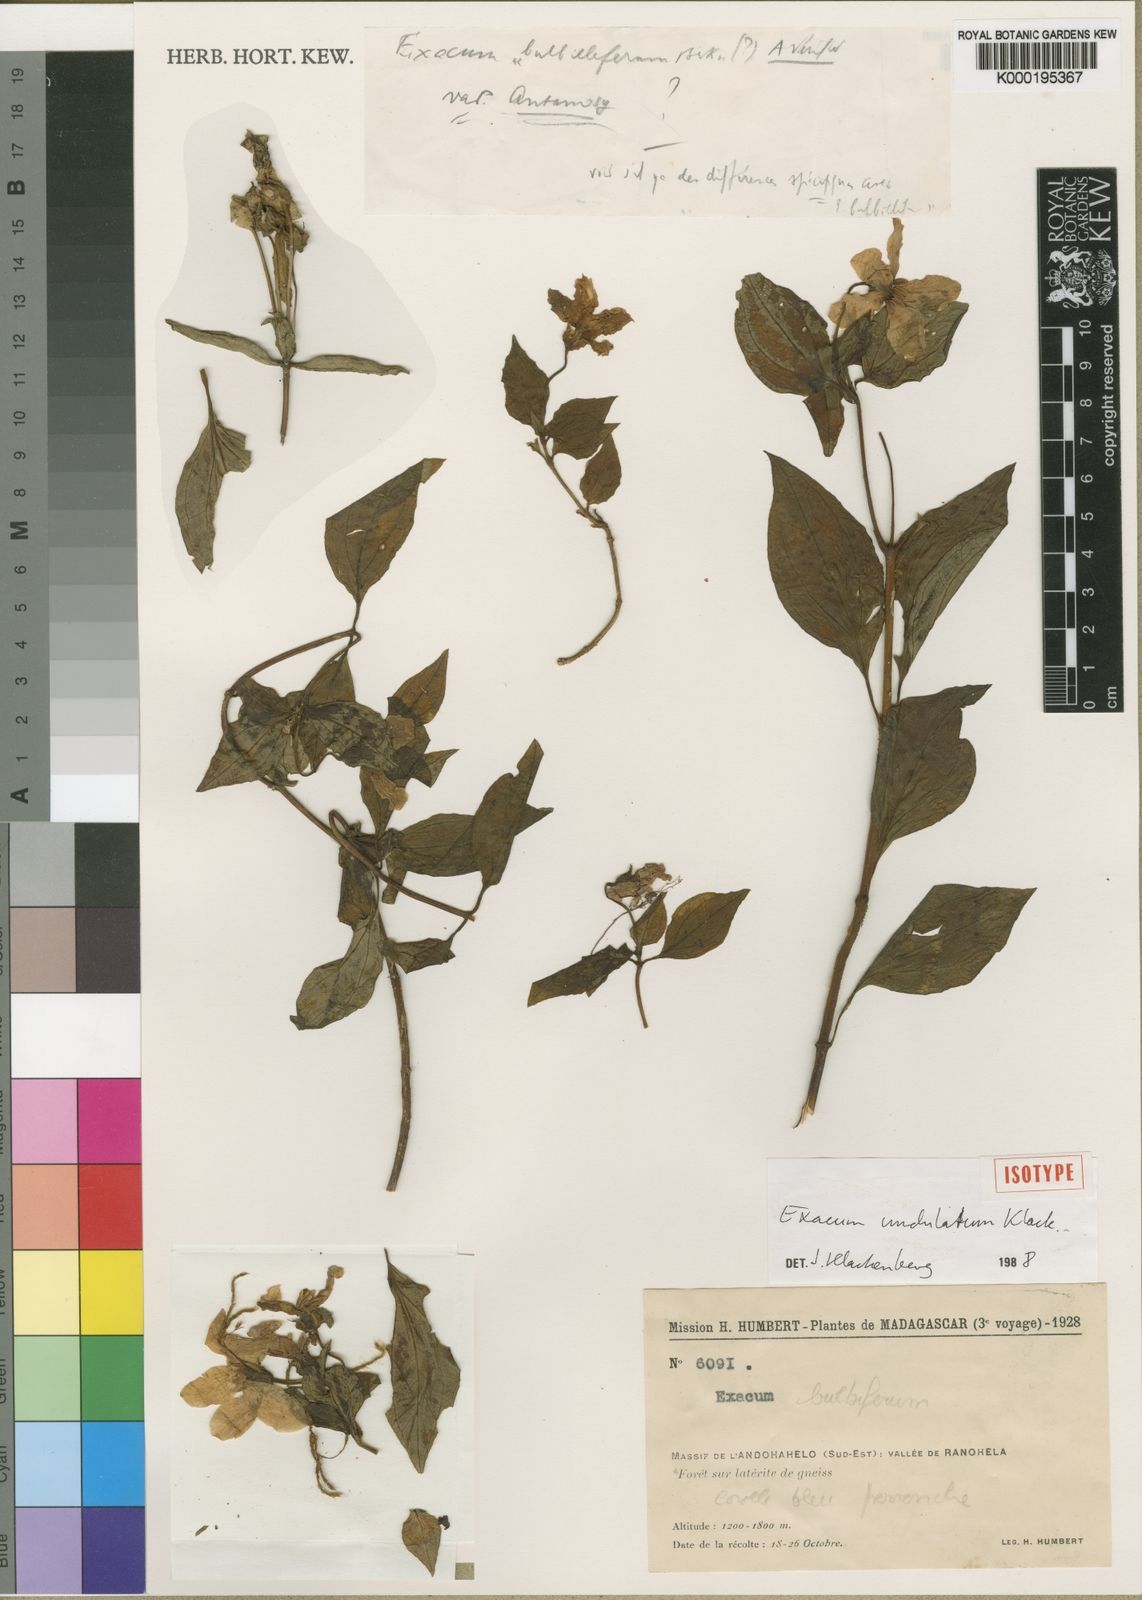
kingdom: Plantae
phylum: Tracheophyta
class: Magnoliopsida
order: Gentianales
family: Gentianaceae
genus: Exacum
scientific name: Exacum undulatum
